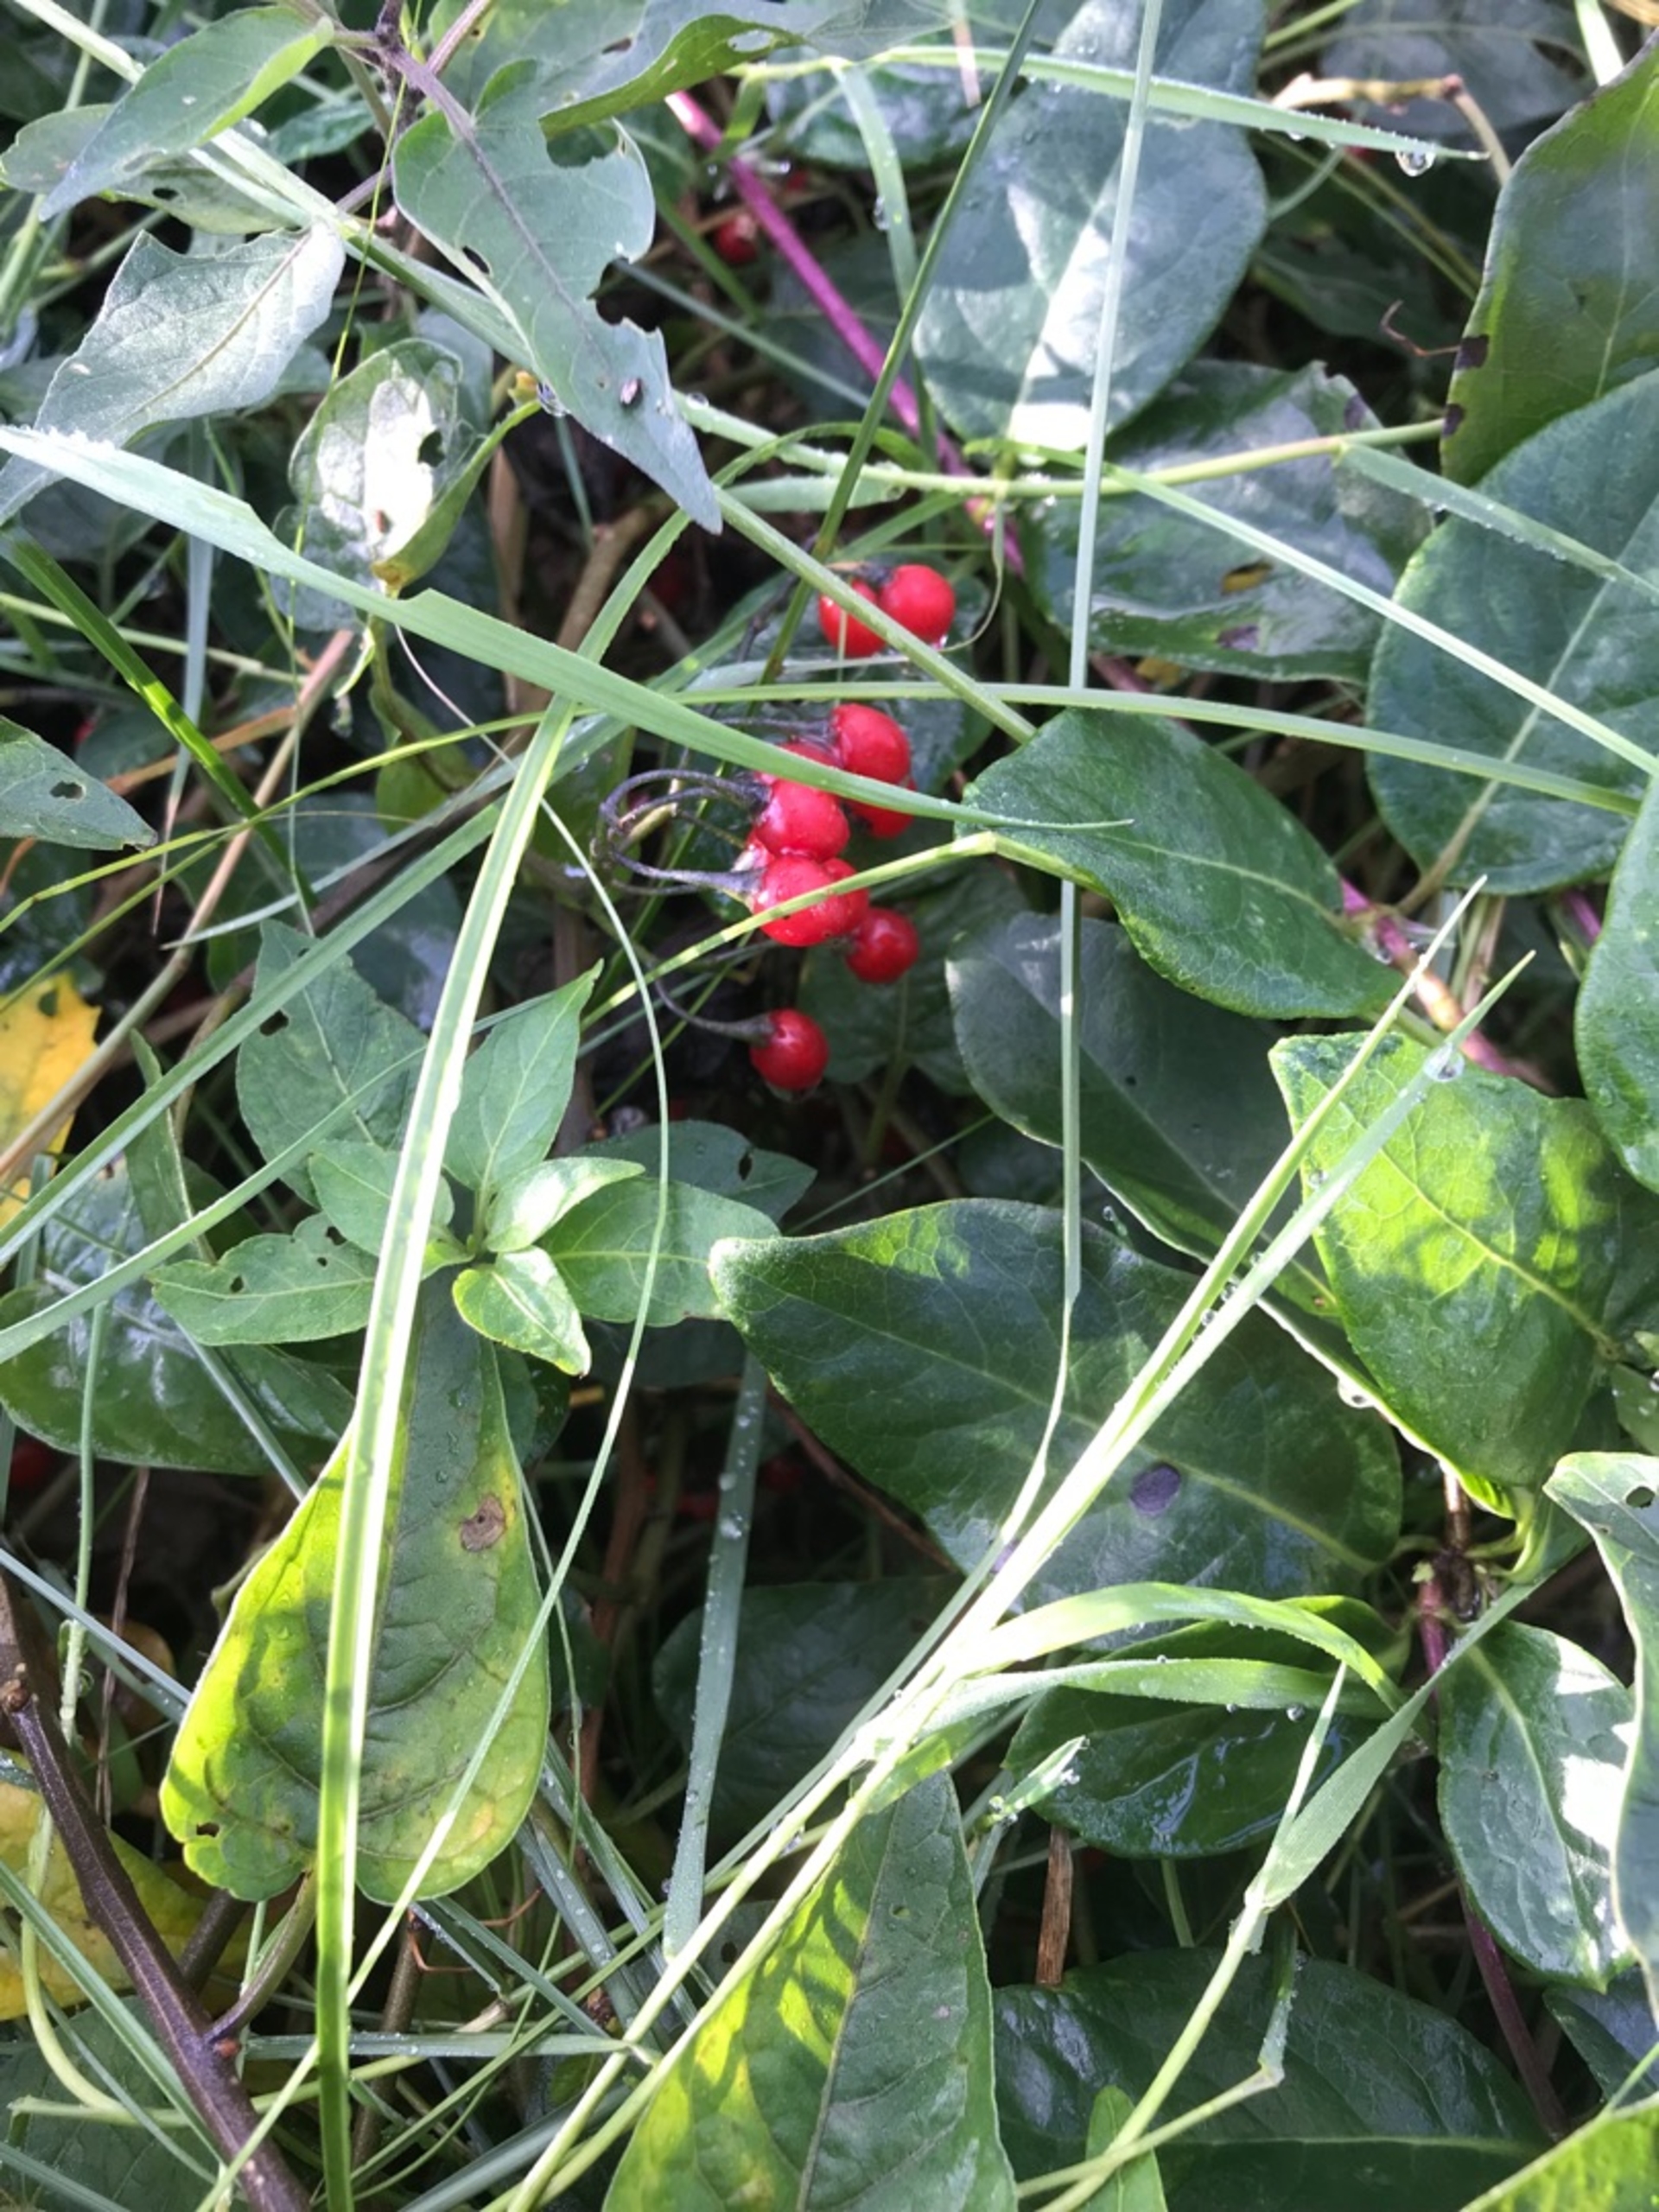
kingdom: Plantae
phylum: Tracheophyta
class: Magnoliopsida
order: Solanales
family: Solanaceae
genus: Solanum
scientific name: Solanum dulcamara
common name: Bittersød natskygge
